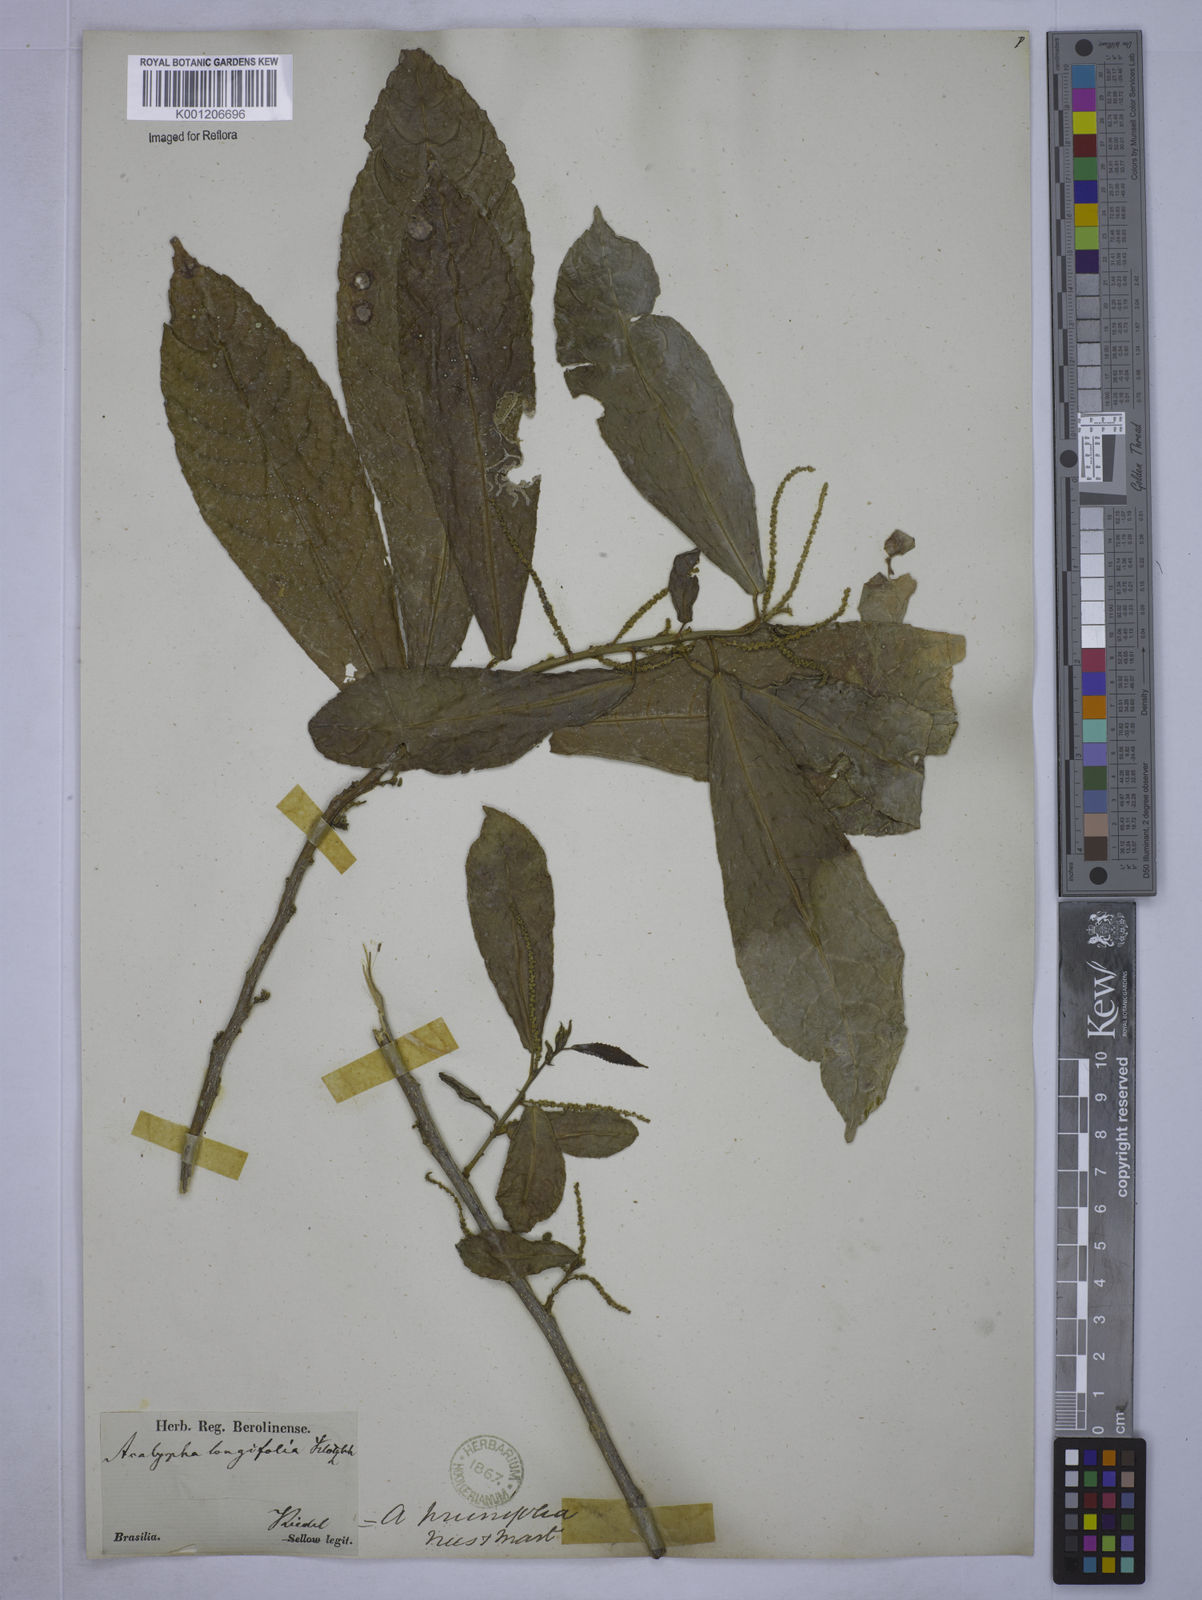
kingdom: Plantae
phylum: Tracheophyta
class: Magnoliopsida
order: Malpighiales
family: Euphorbiaceae
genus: Acalypha
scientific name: Acalypha klotzschii
